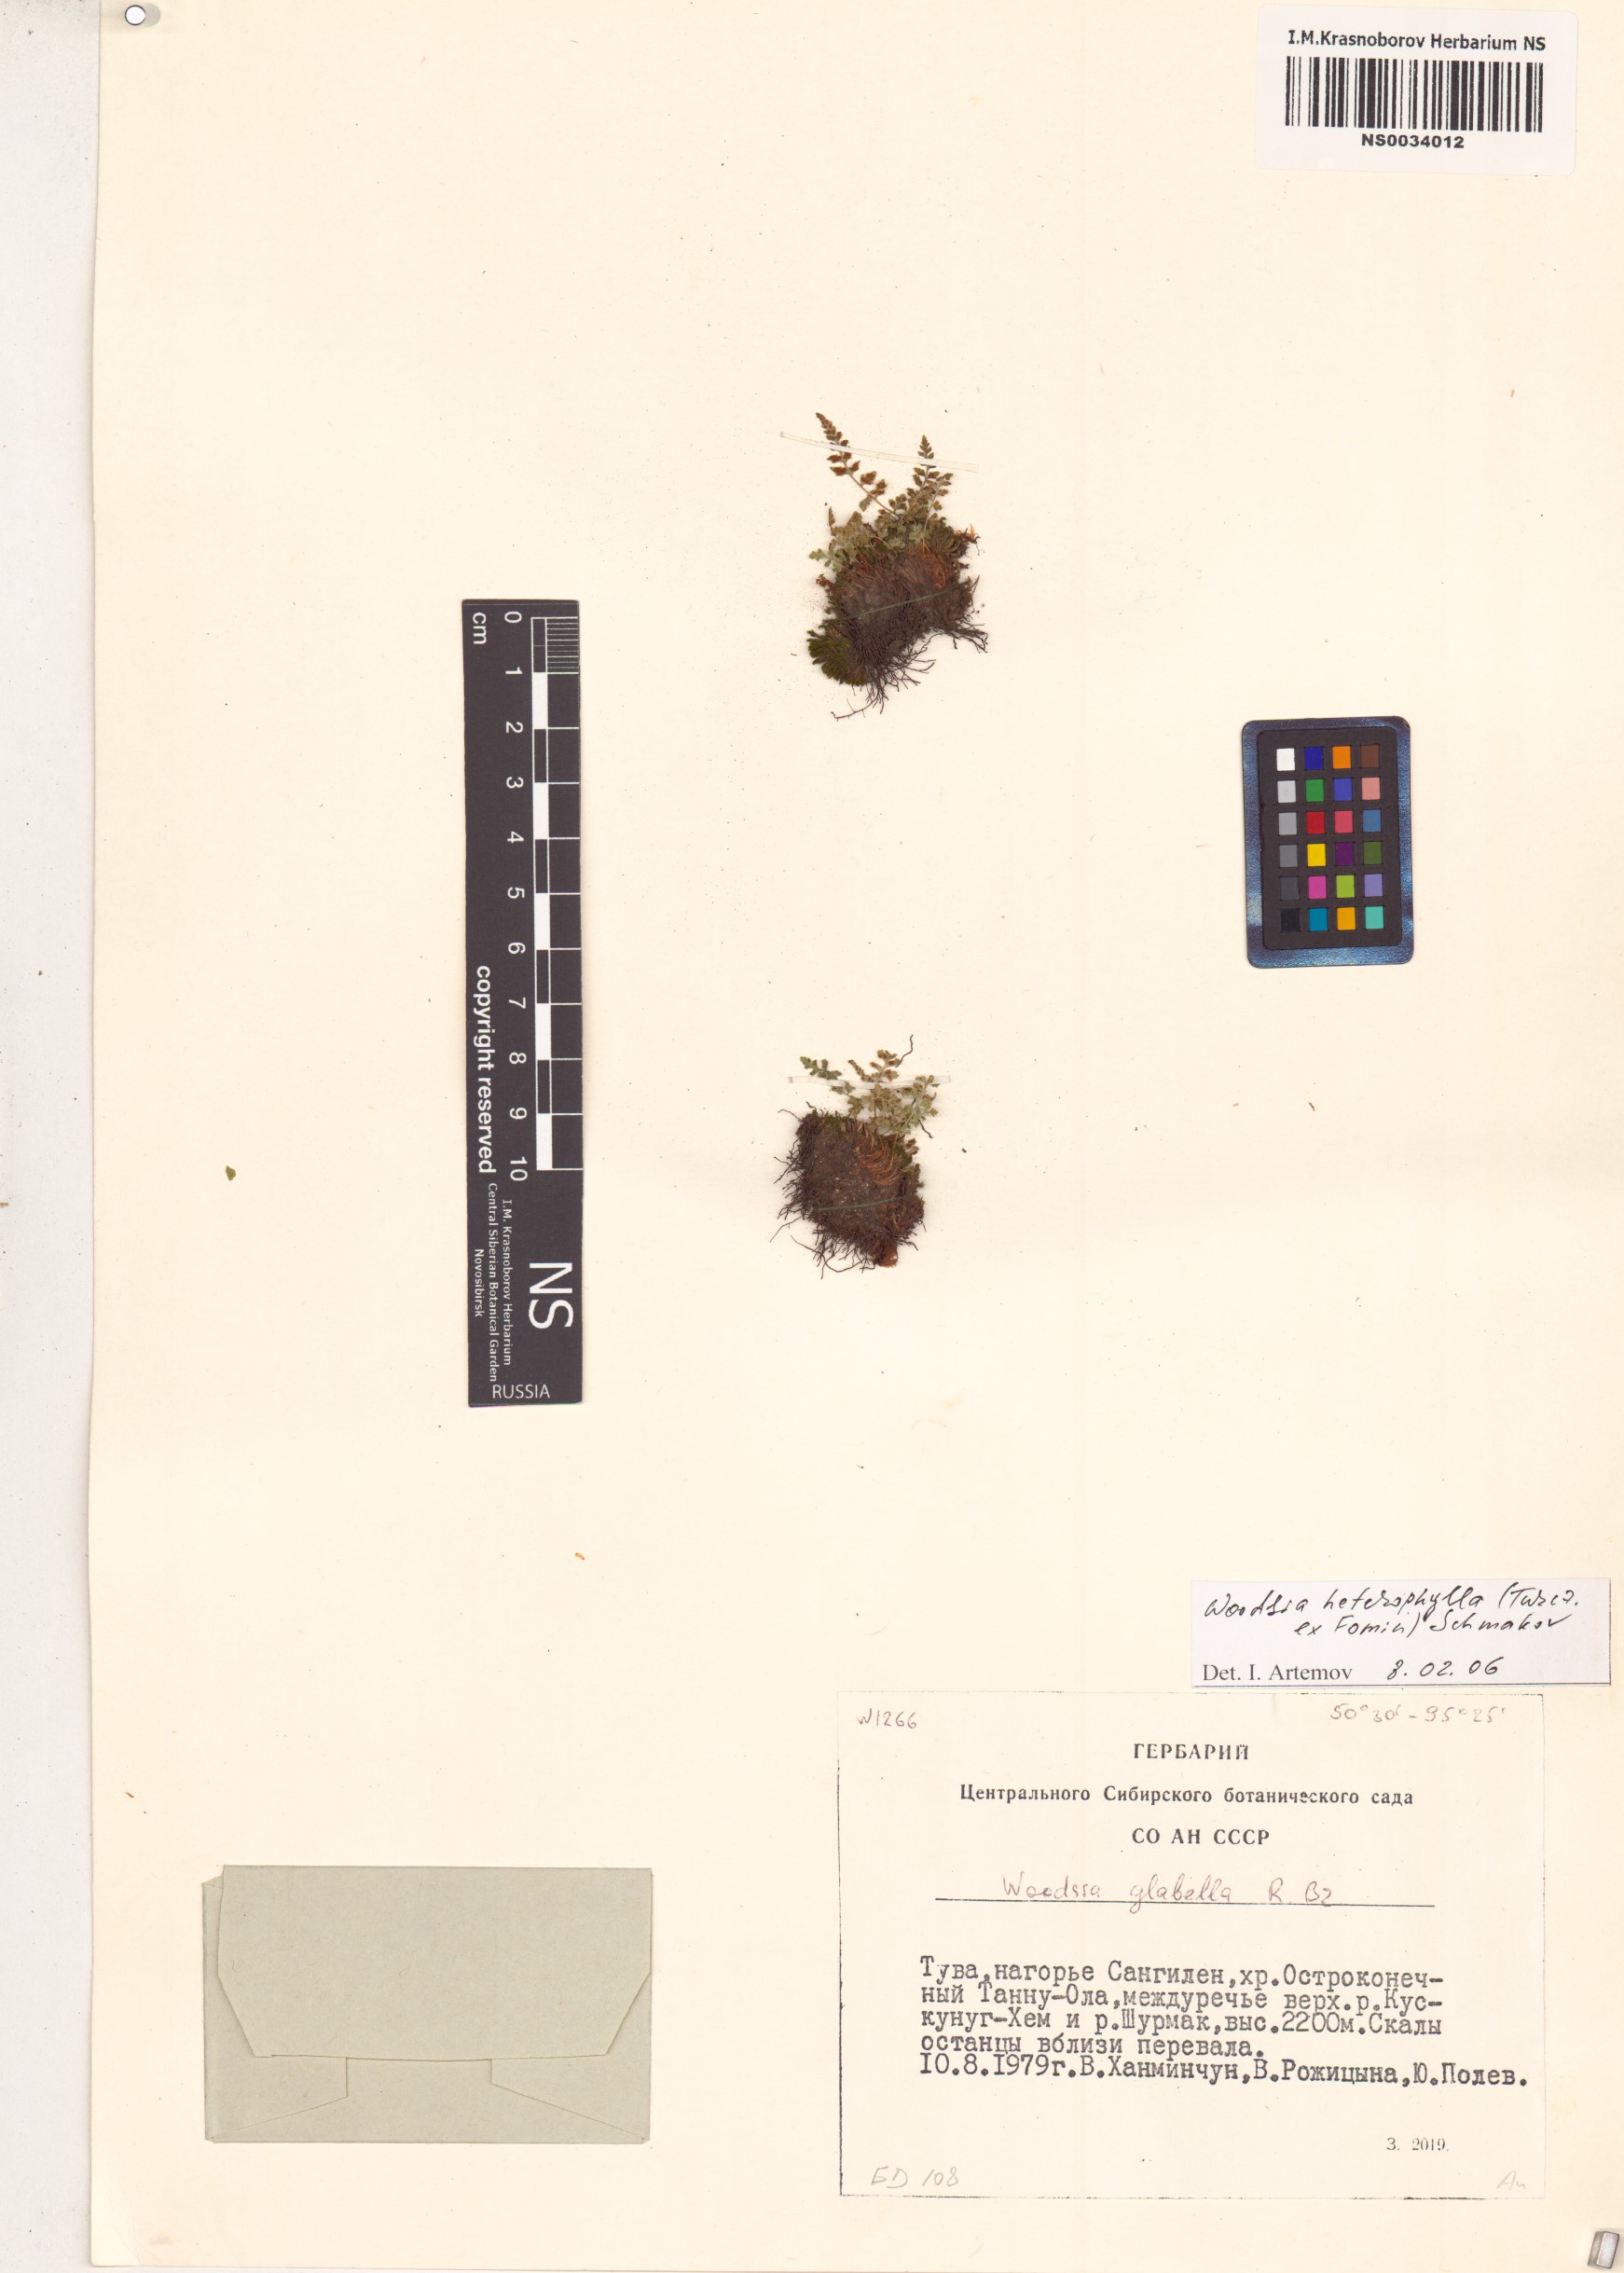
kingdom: Plantae
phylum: Tracheophyta
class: Polypodiopsida
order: Polypodiales
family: Woodsiaceae
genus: Woodsia
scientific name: Woodsia pulchella
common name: Graceful woodsia
